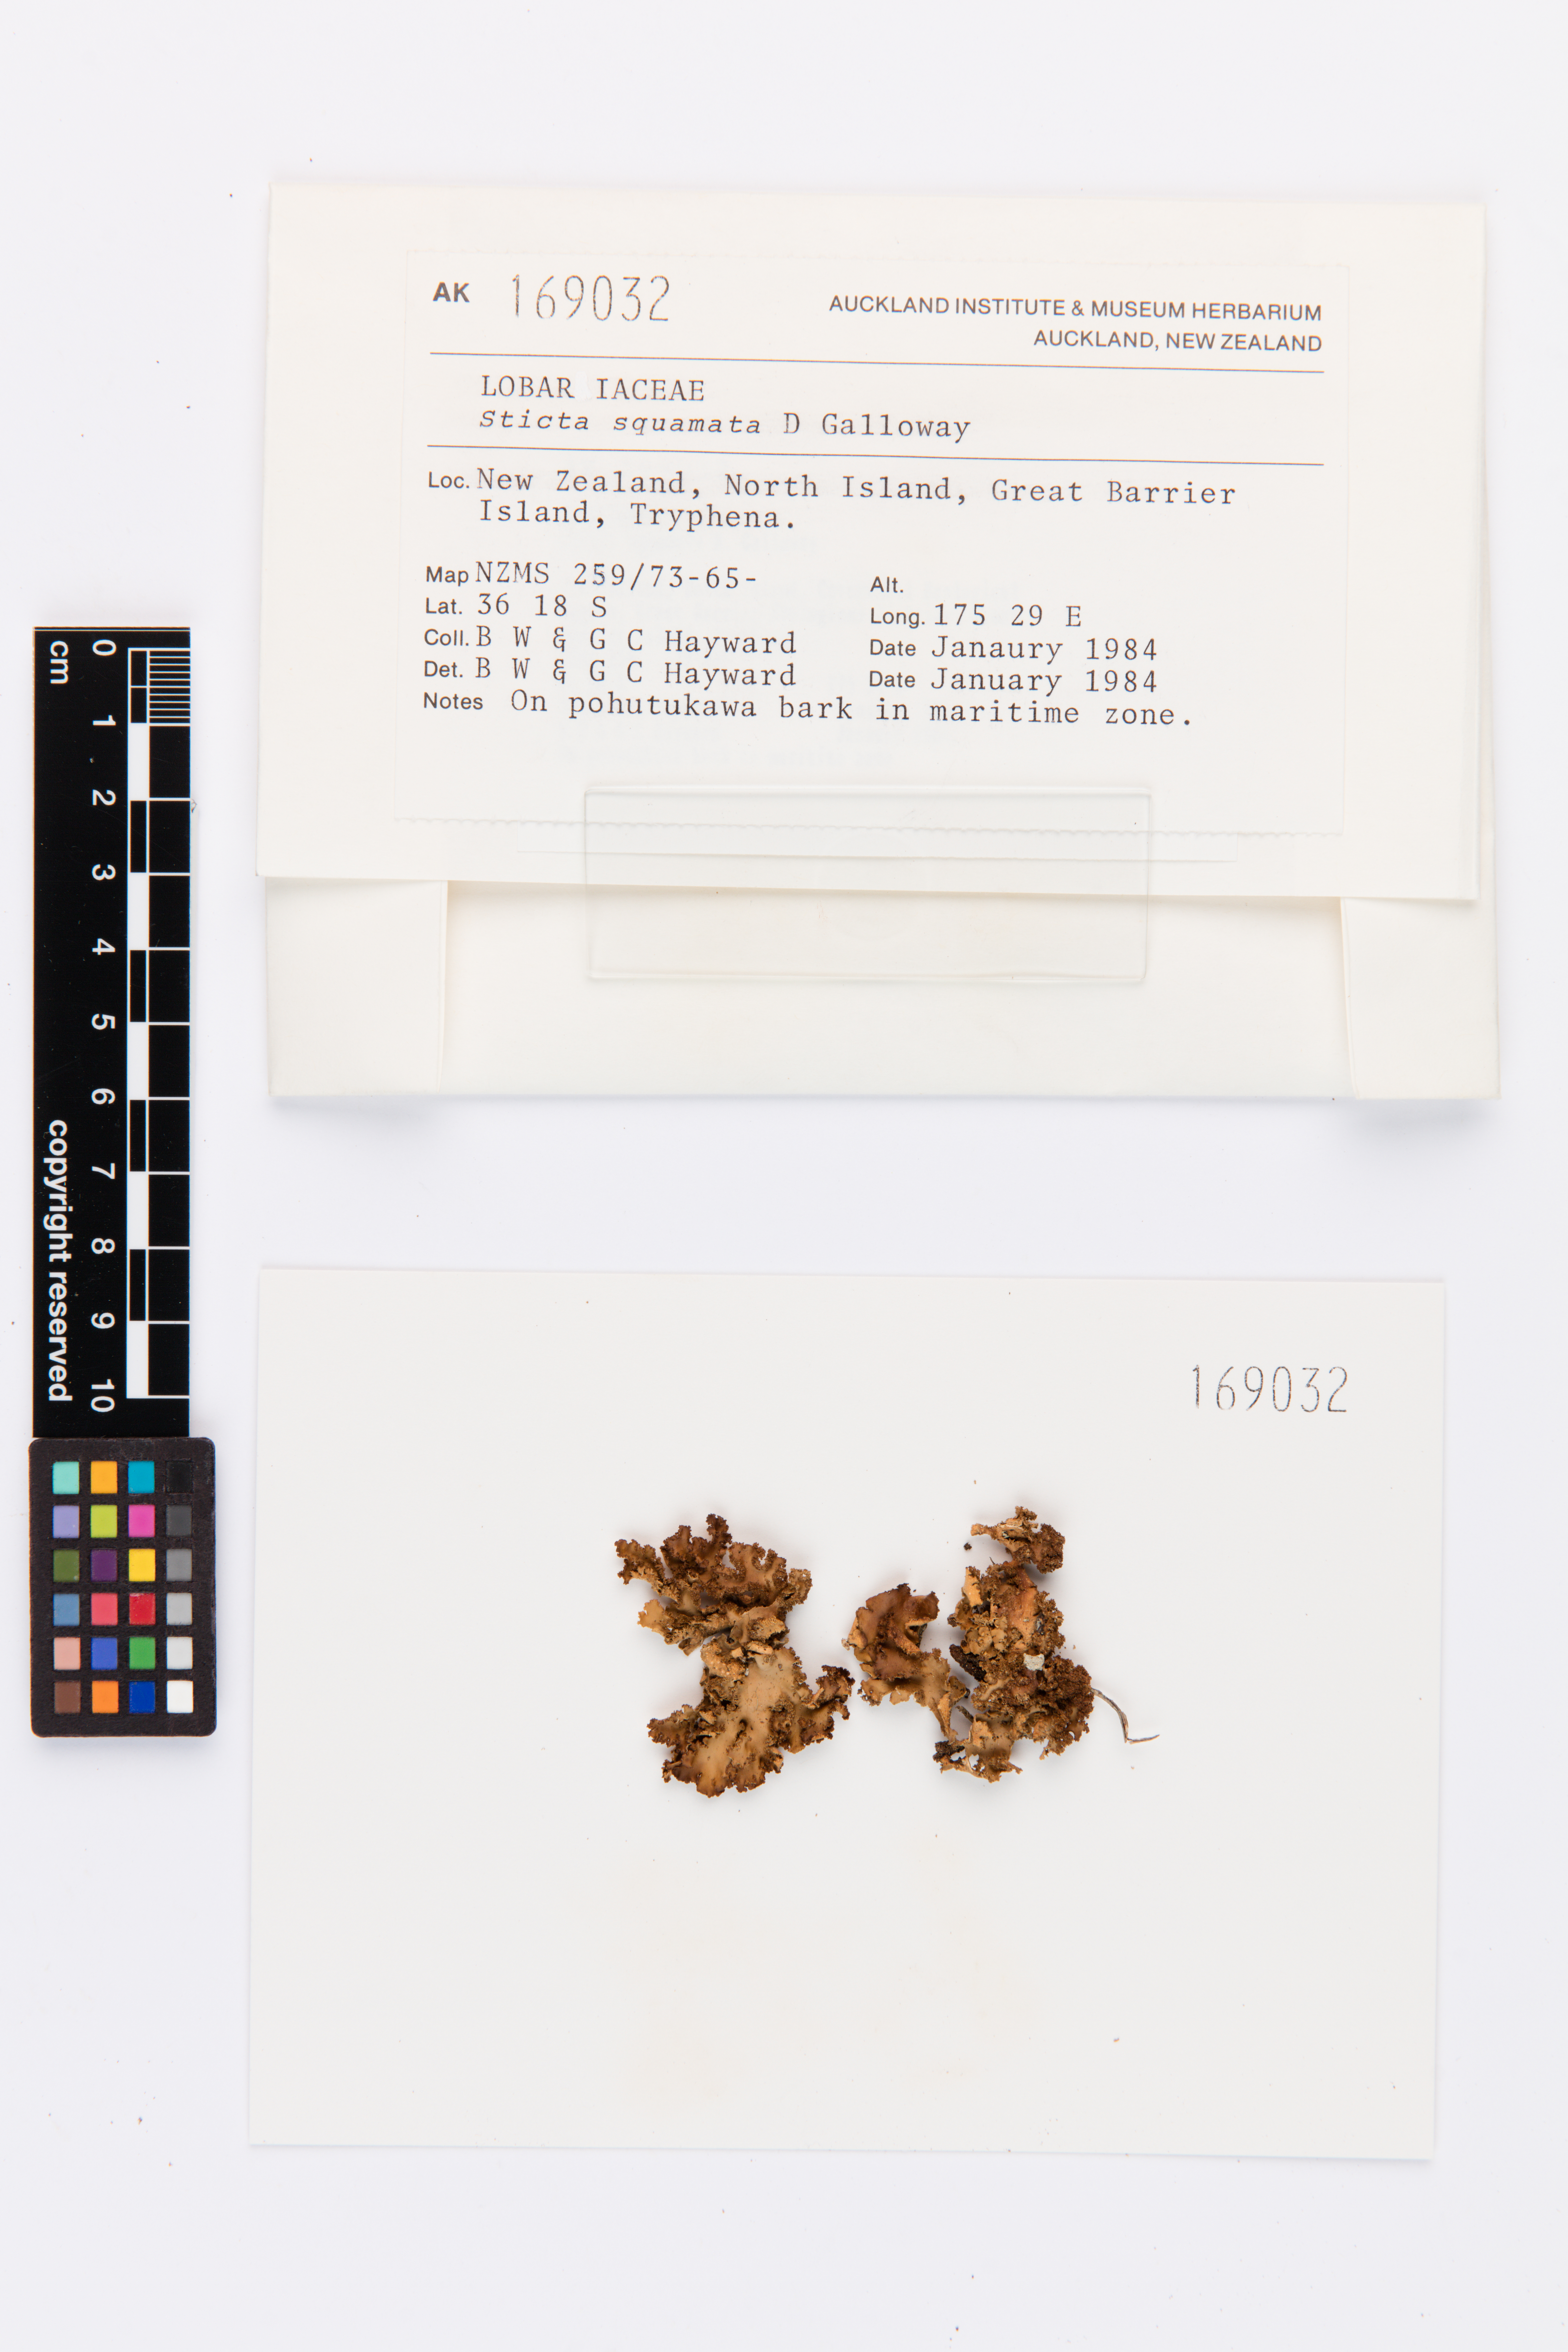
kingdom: Fungi
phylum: Ascomycota
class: Lecanoromycetes
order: Peltigerales
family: Lobariaceae
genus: Sticta
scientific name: Sticta squamata
